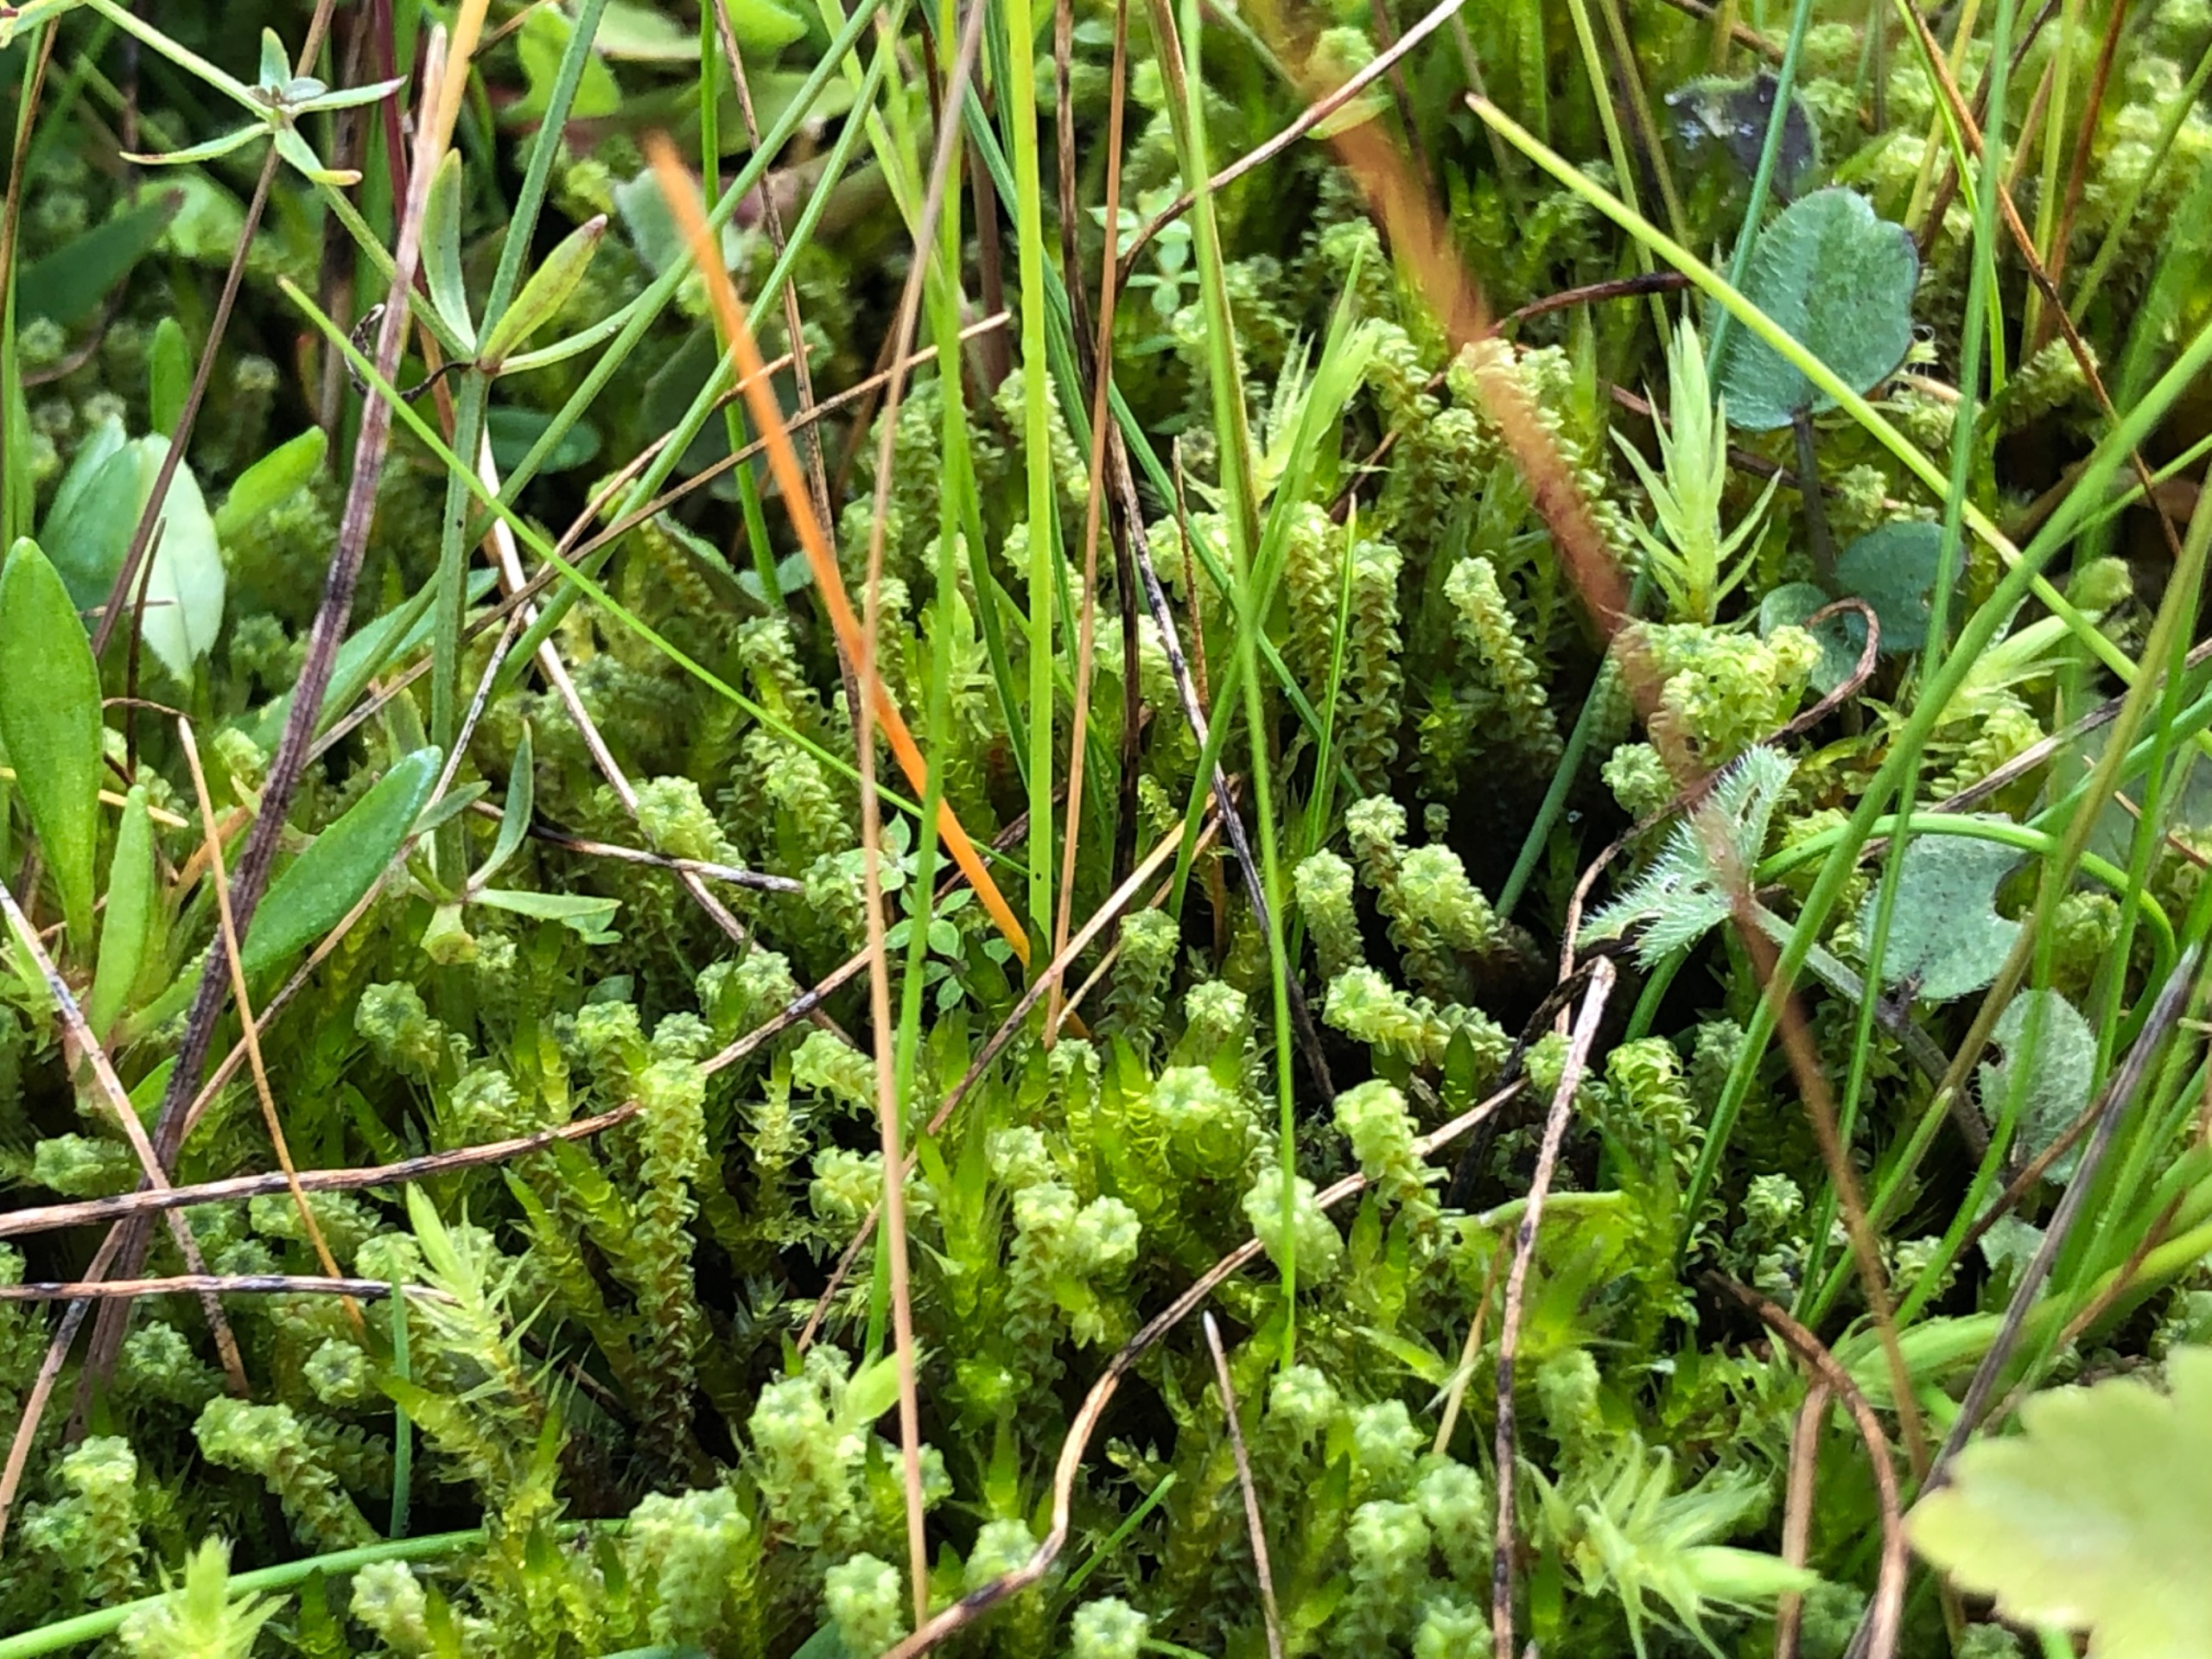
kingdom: Plantae
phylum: Bryophyta
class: Bryopsida
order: Splachnales
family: Meesiaceae
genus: Paludella
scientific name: Paludella squarrosa
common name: Almindelig piberensermos
